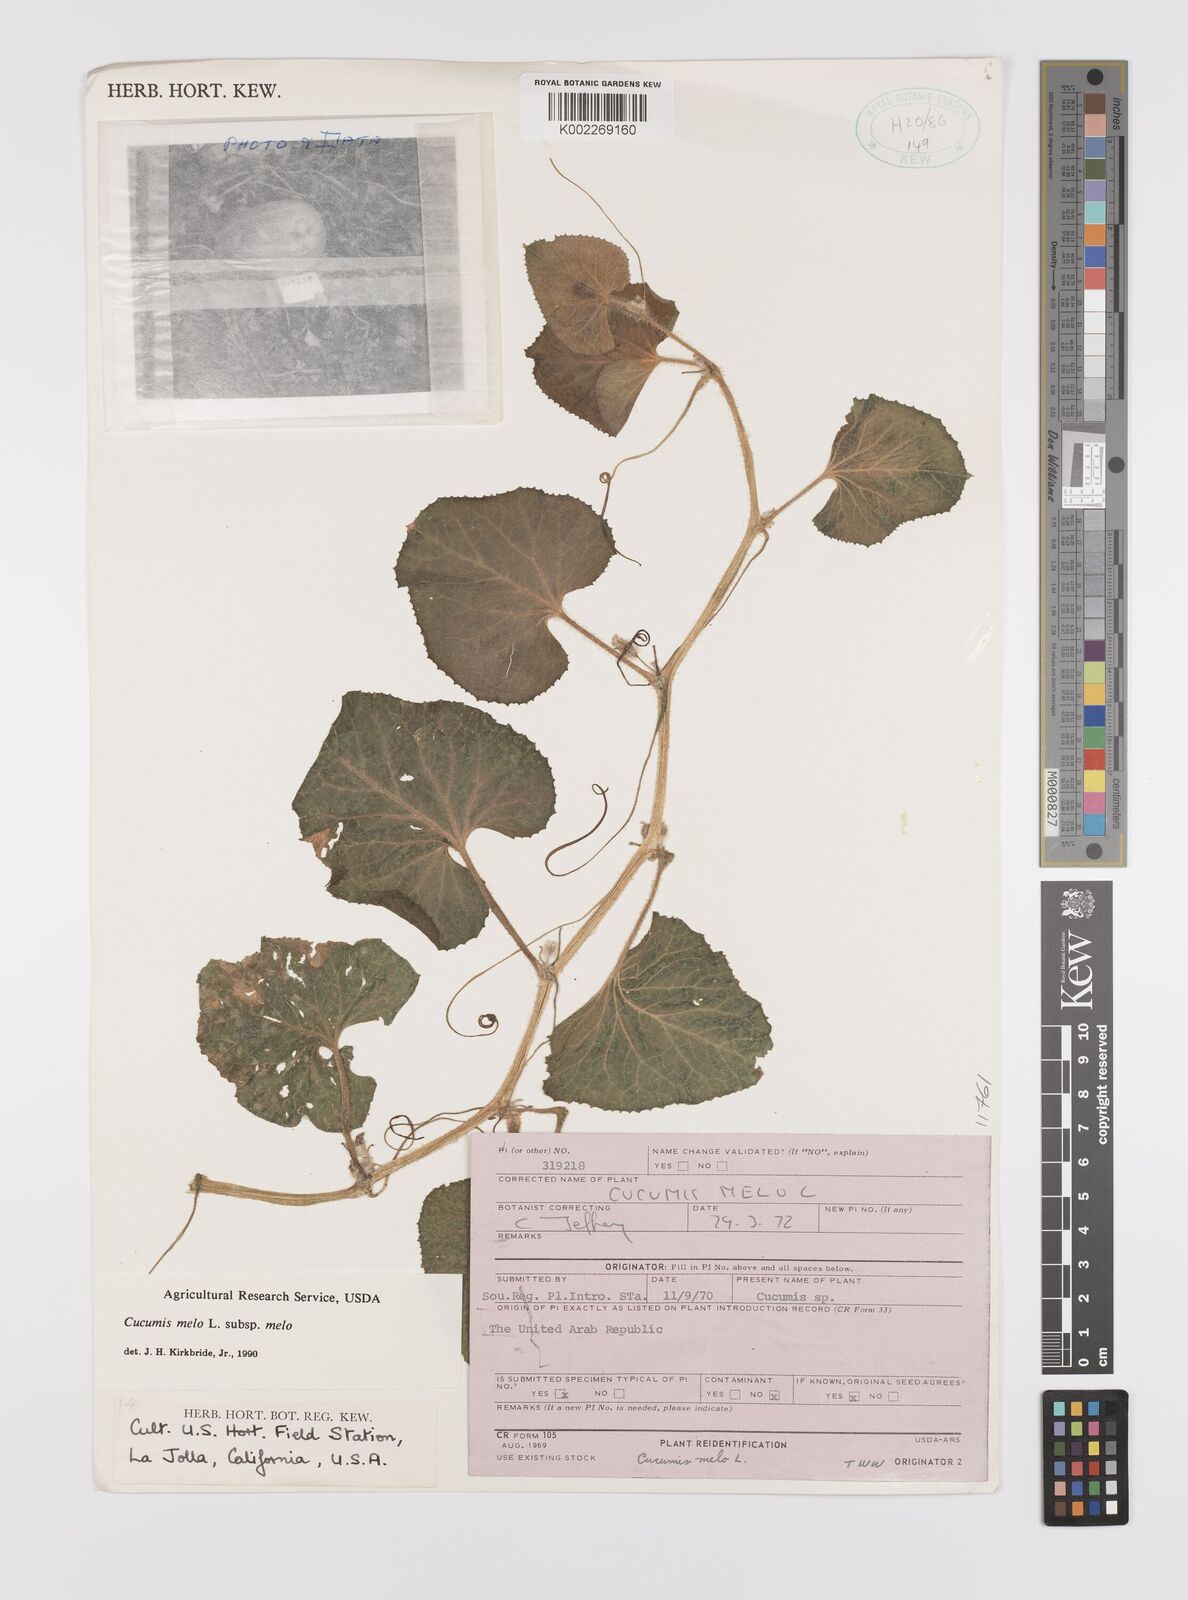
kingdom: Plantae
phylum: Tracheophyta
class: Magnoliopsida
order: Cucurbitales
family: Cucurbitaceae
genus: Cucumis
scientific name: Cucumis melo
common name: Melon
